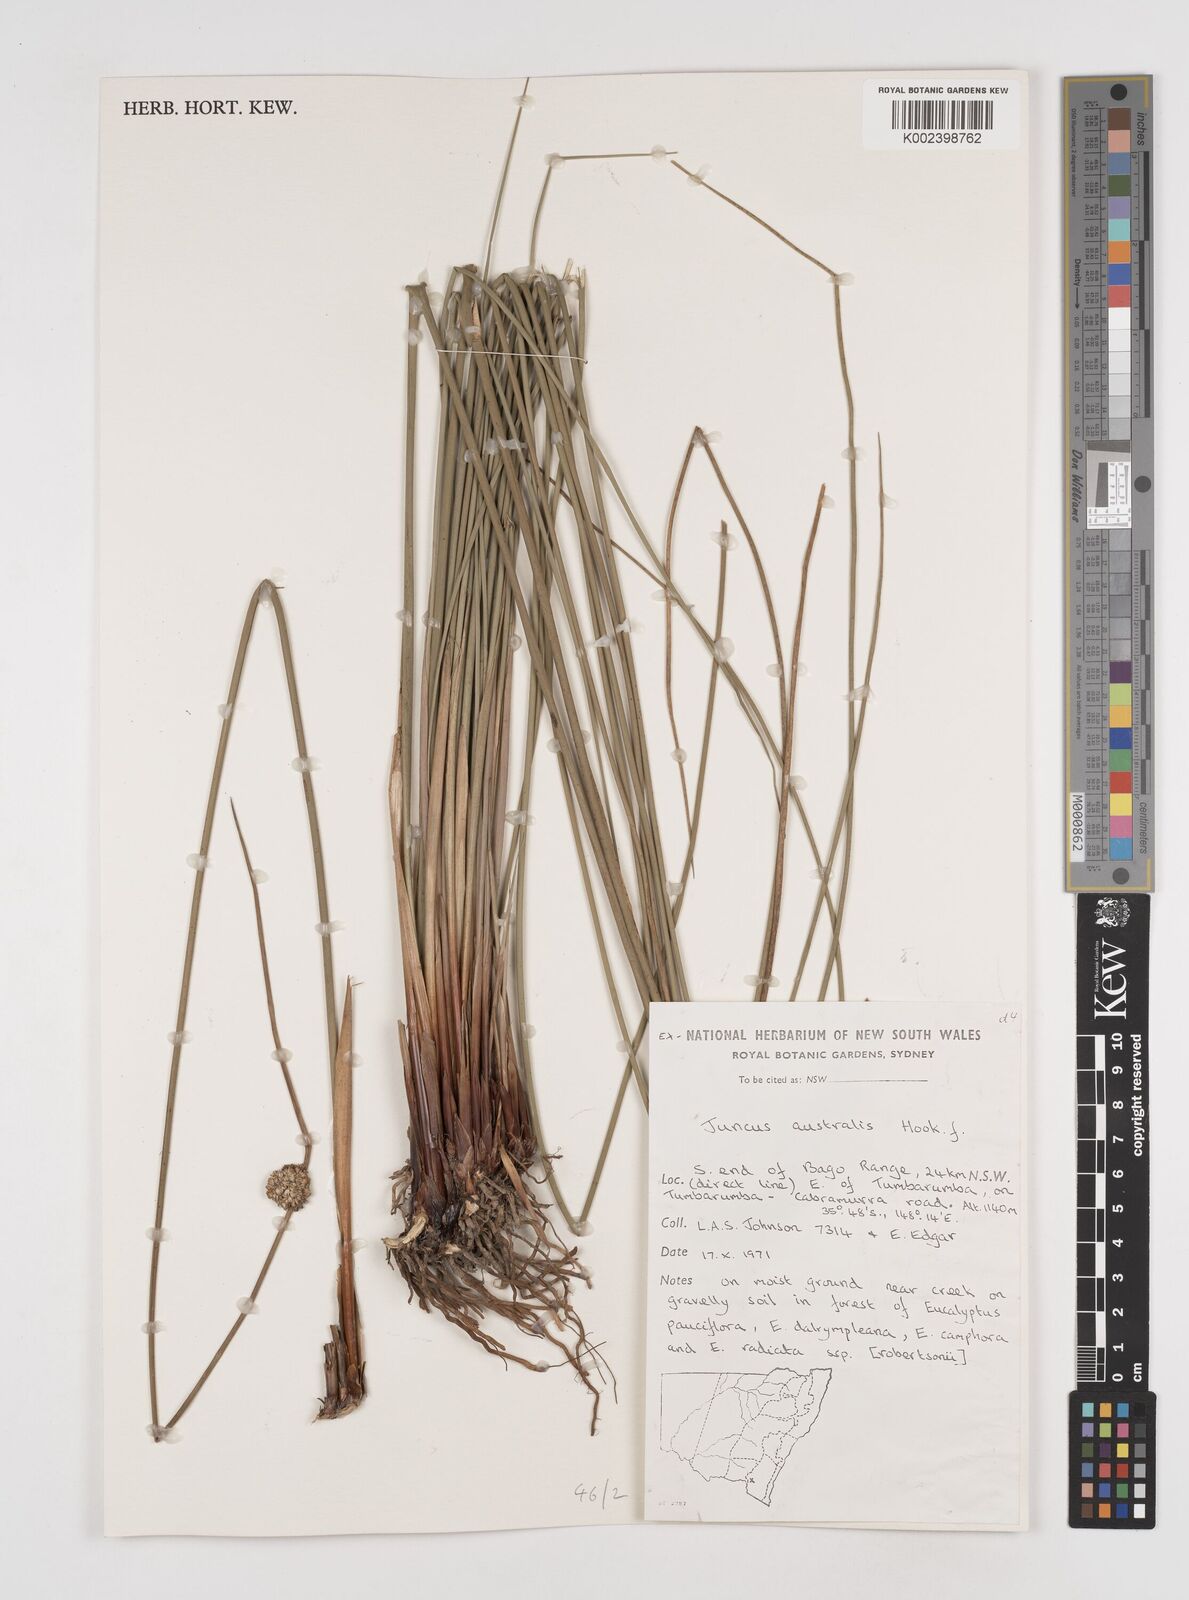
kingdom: Plantae
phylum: Tracheophyta
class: Liliopsida
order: Poales
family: Juncaceae
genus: Juncus
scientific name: Juncus australis
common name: Austral rush
